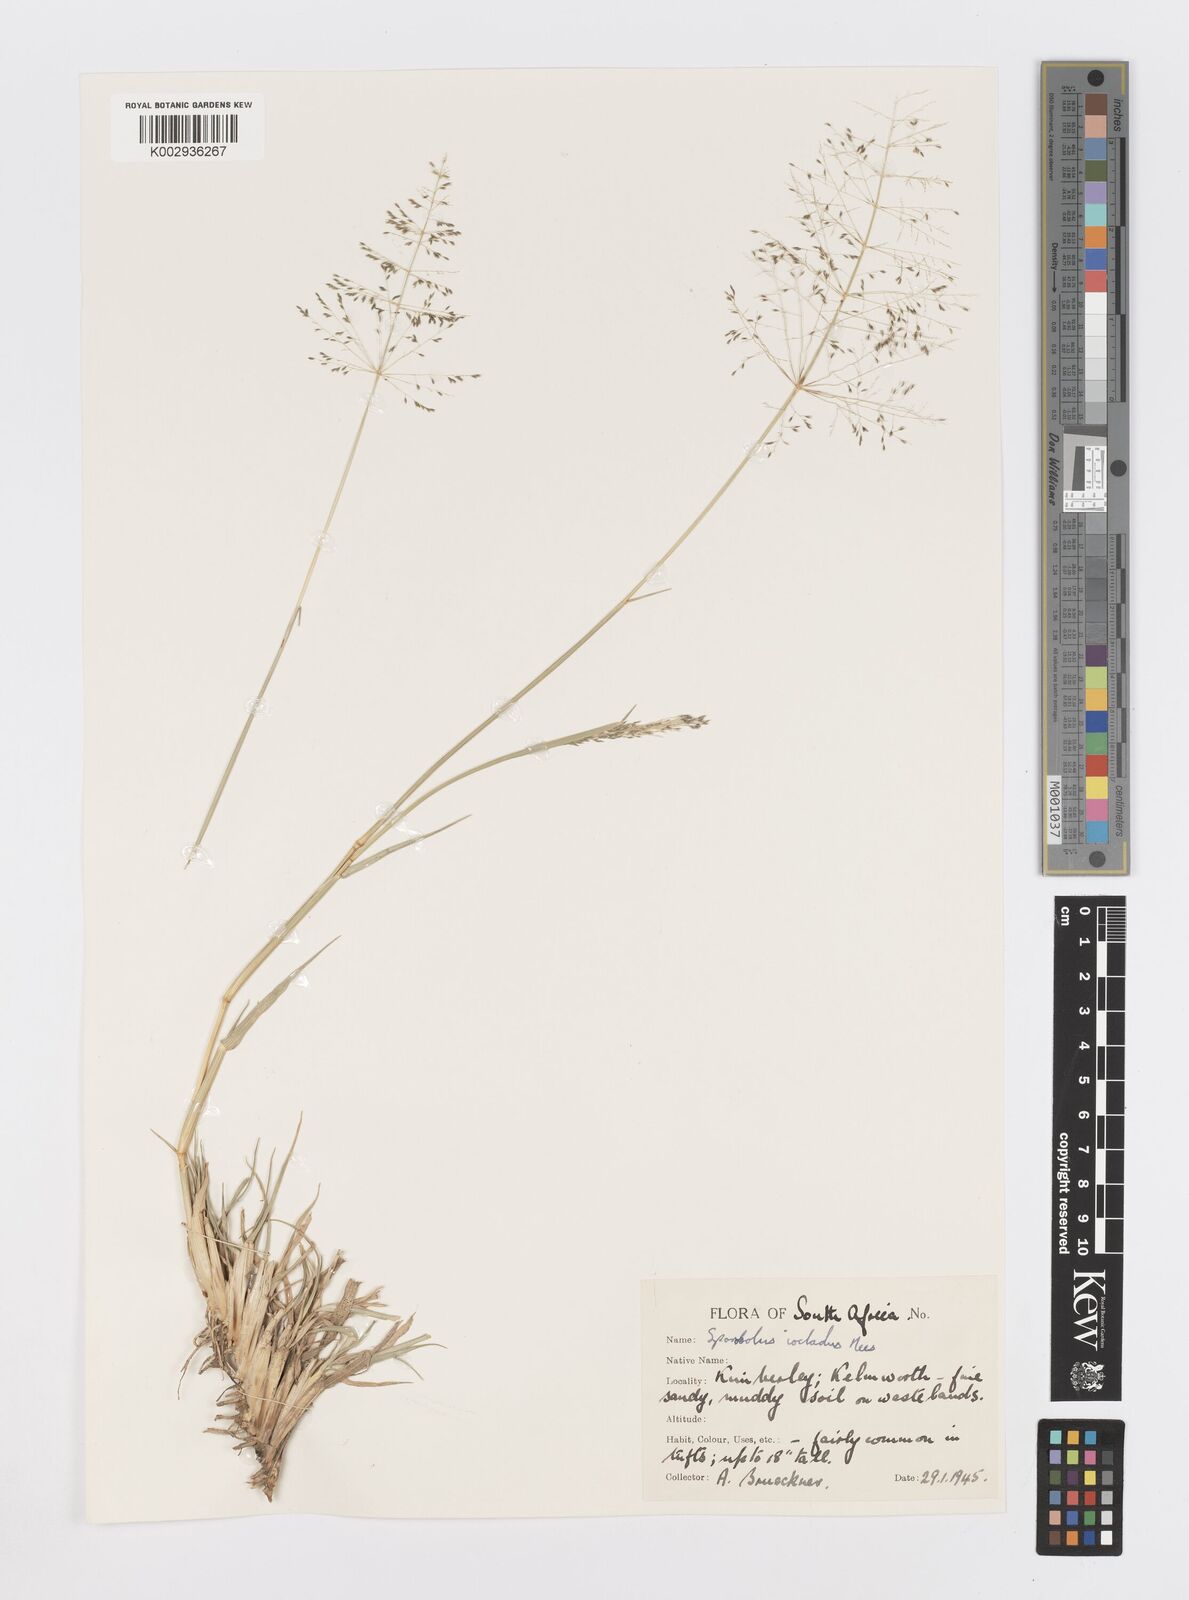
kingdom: Plantae
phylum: Tracheophyta
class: Liliopsida
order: Poales
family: Poaceae
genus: Sporobolus
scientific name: Sporobolus ioclados
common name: Pan dropseed
